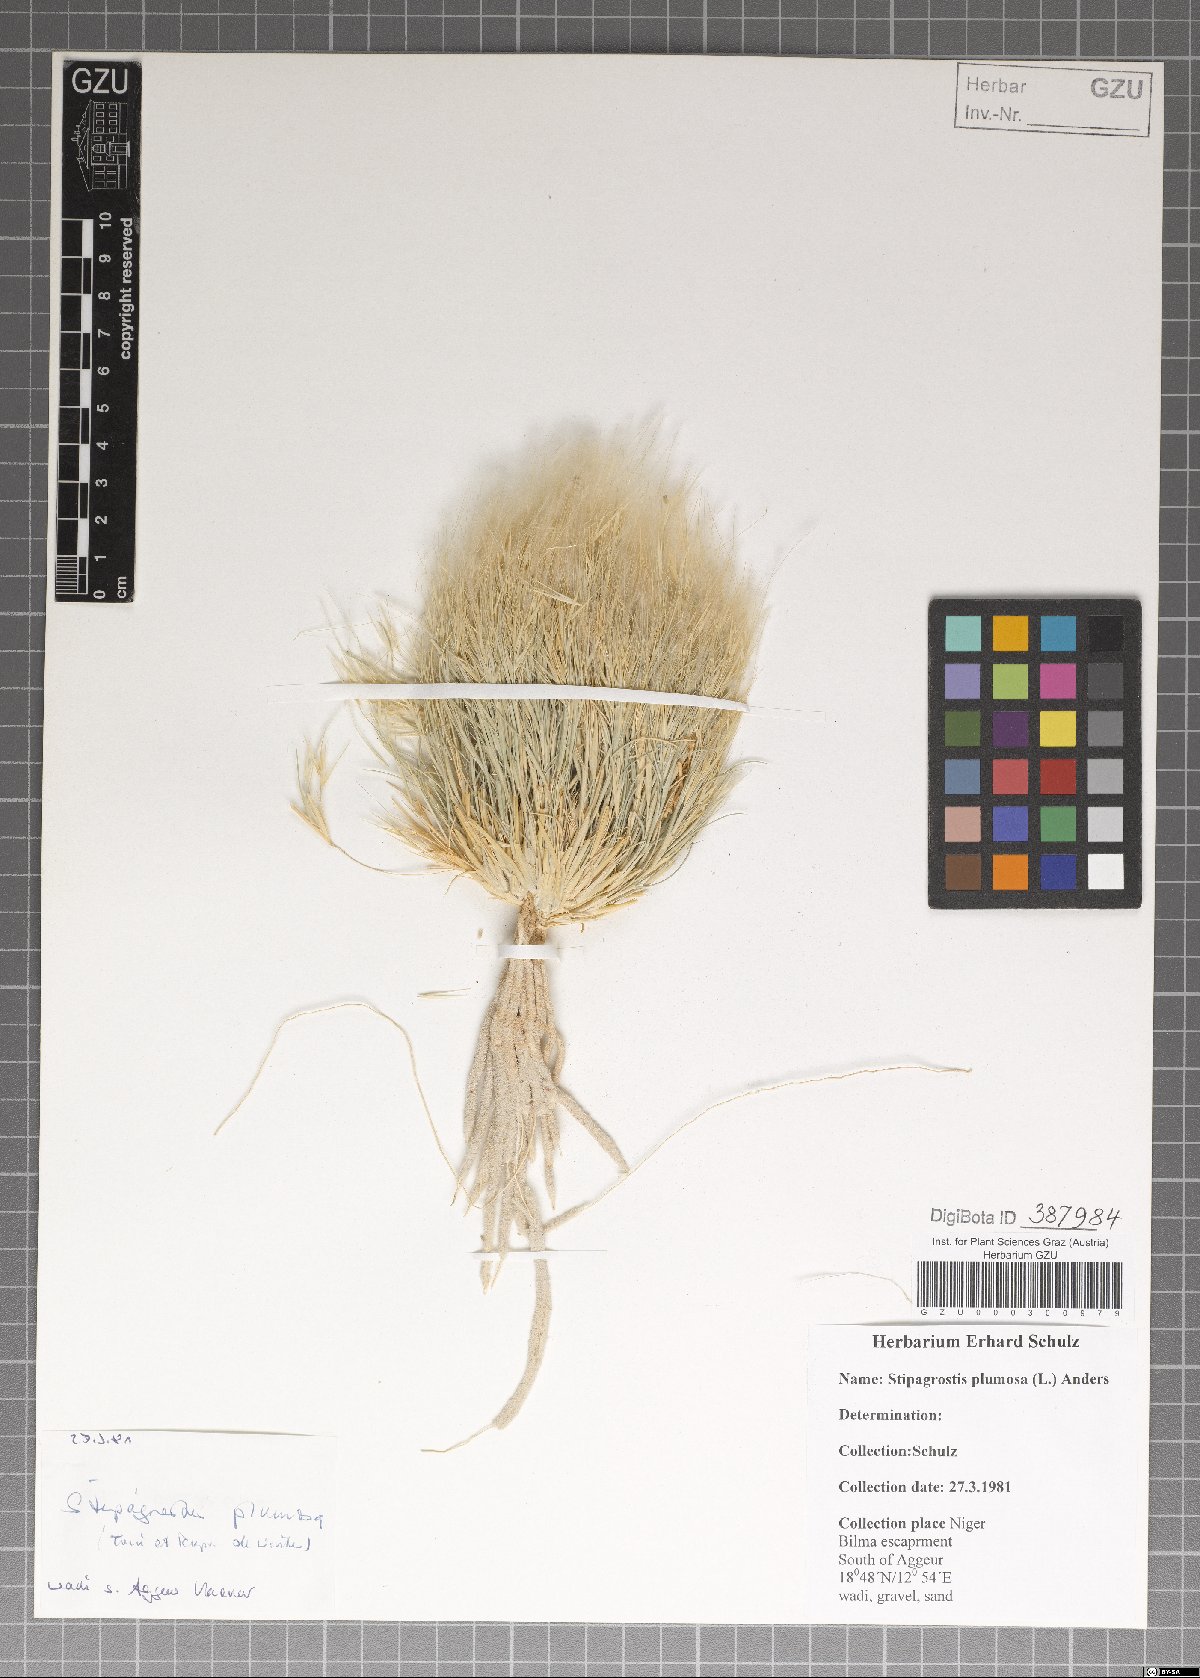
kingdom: Plantae
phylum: Tracheophyta
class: Liliopsida
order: Poales
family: Poaceae
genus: Stipagrostis
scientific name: Stipagrostis plumosa
